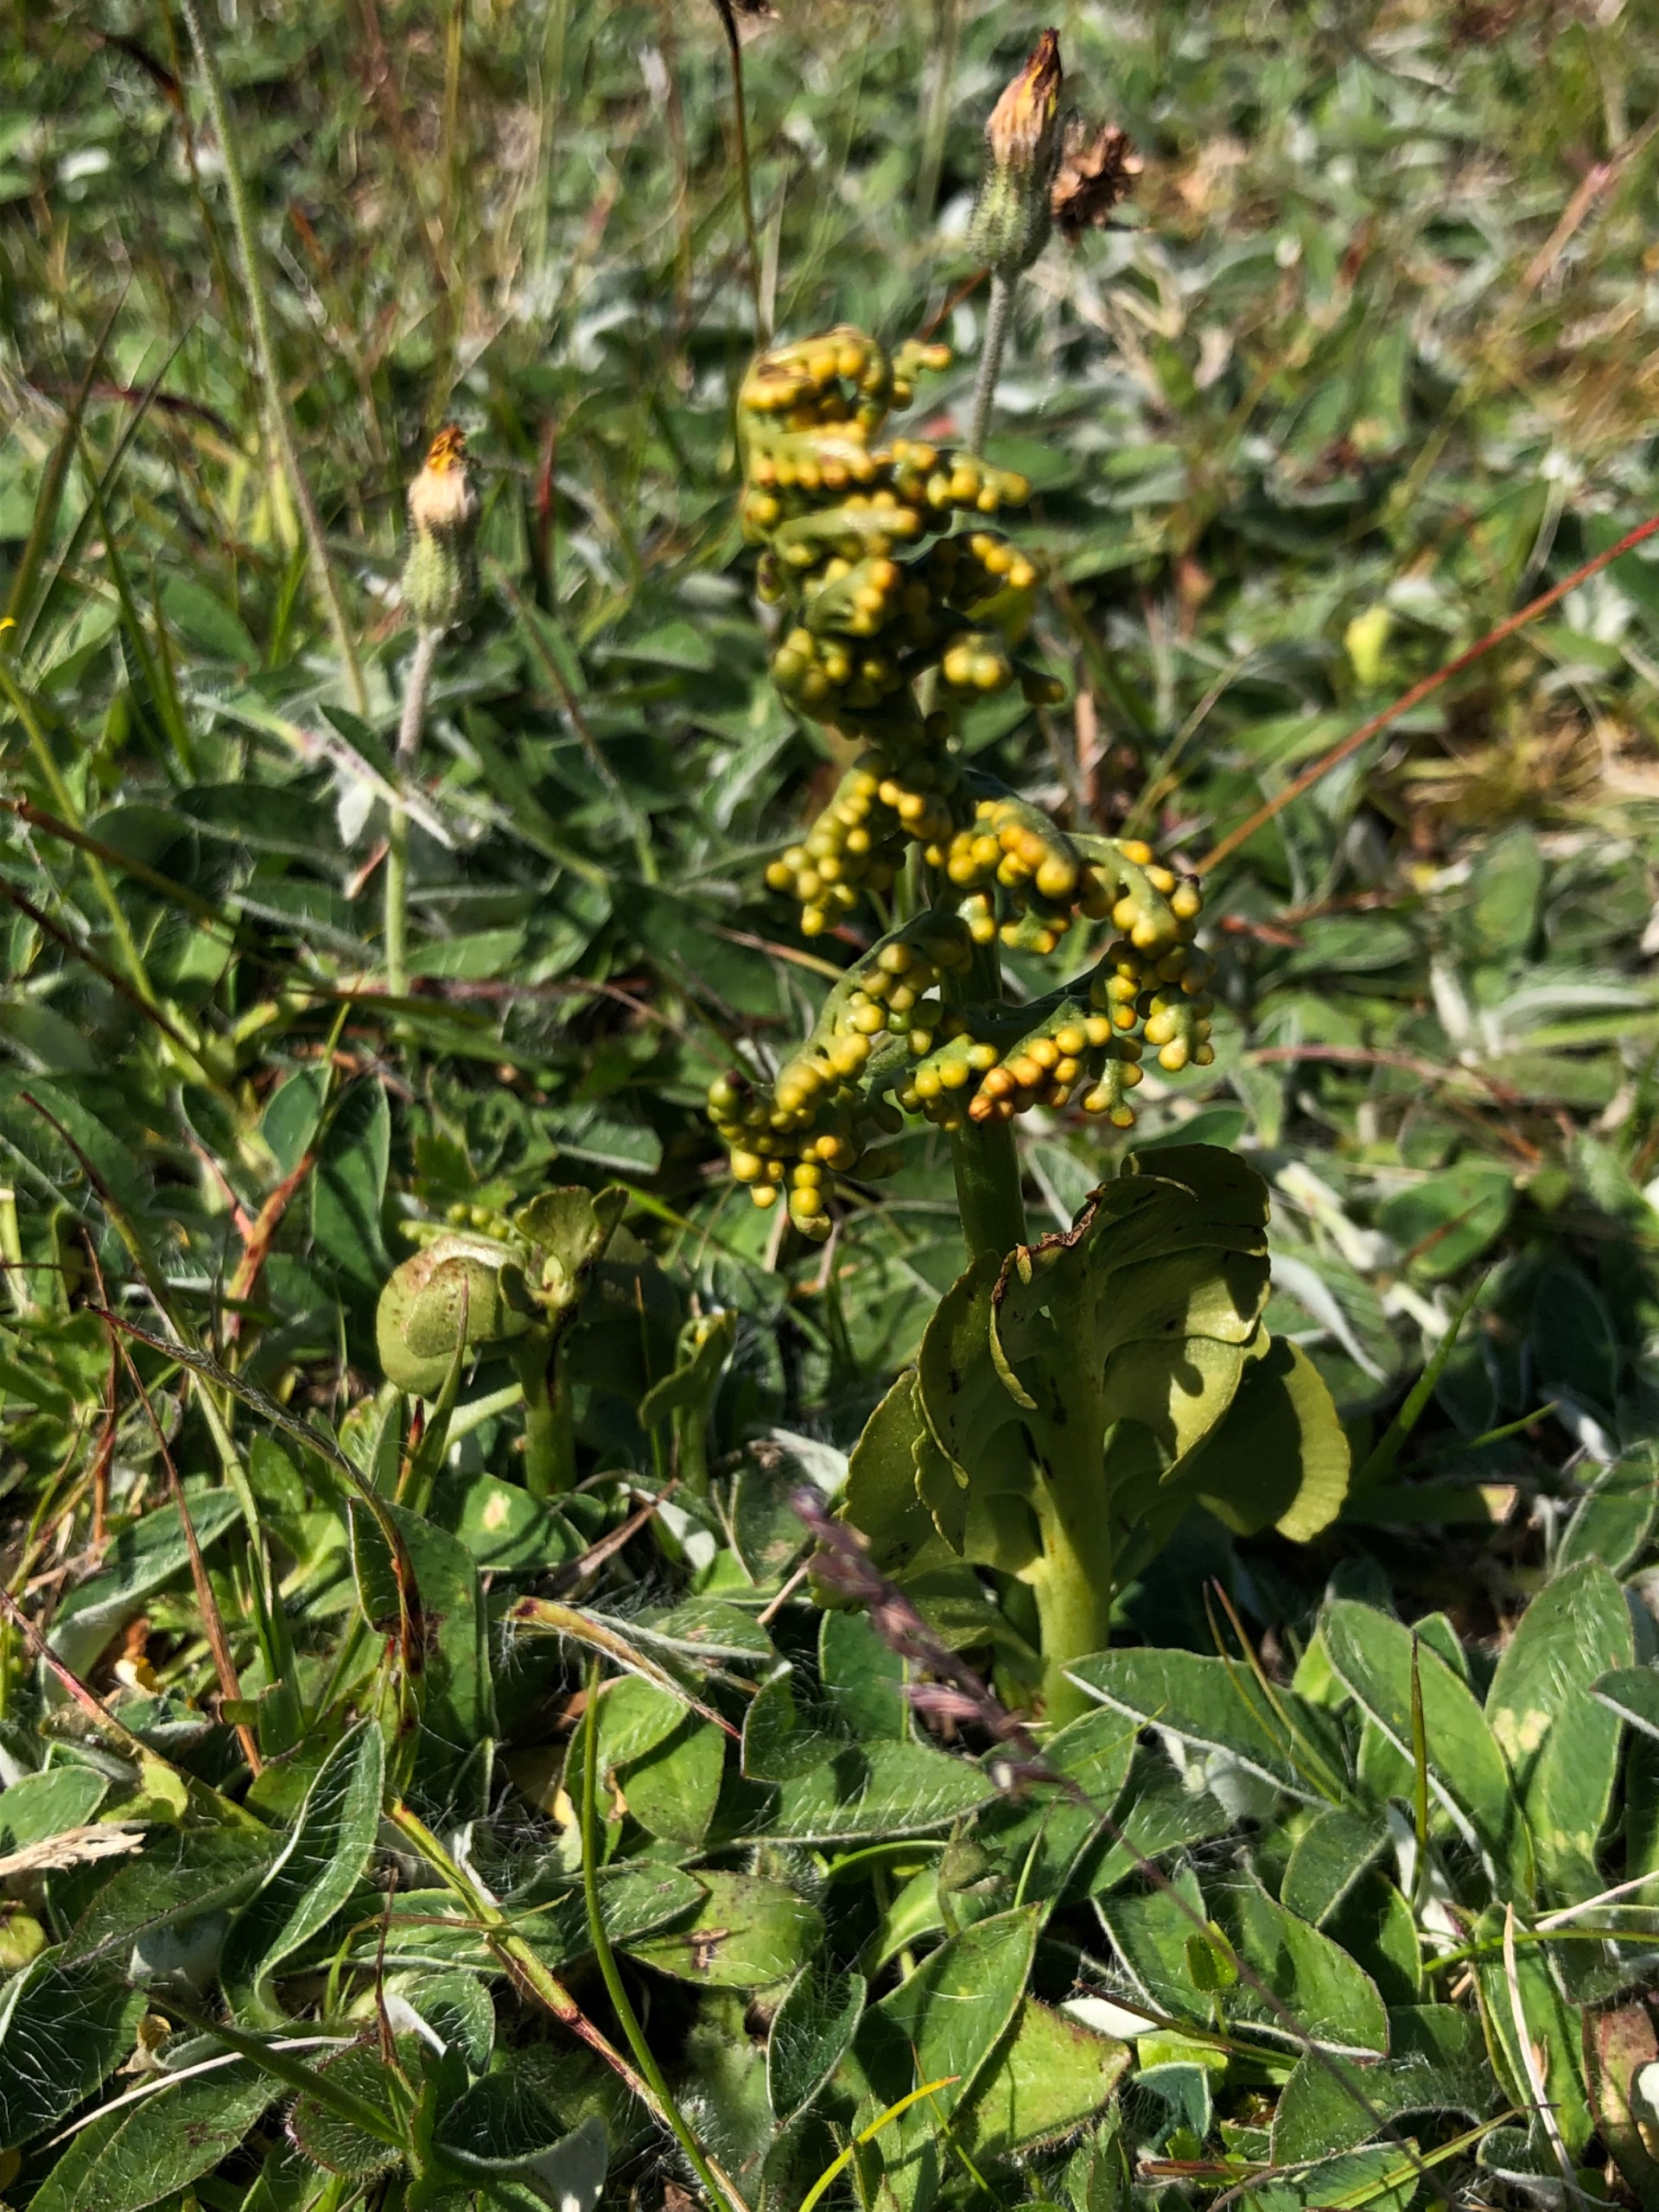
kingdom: Plantae
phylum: Tracheophyta
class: Polypodiopsida
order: Ophioglossales
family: Ophioglossaceae
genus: Botrychium
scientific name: Botrychium lunaria
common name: Almindelig månerude
